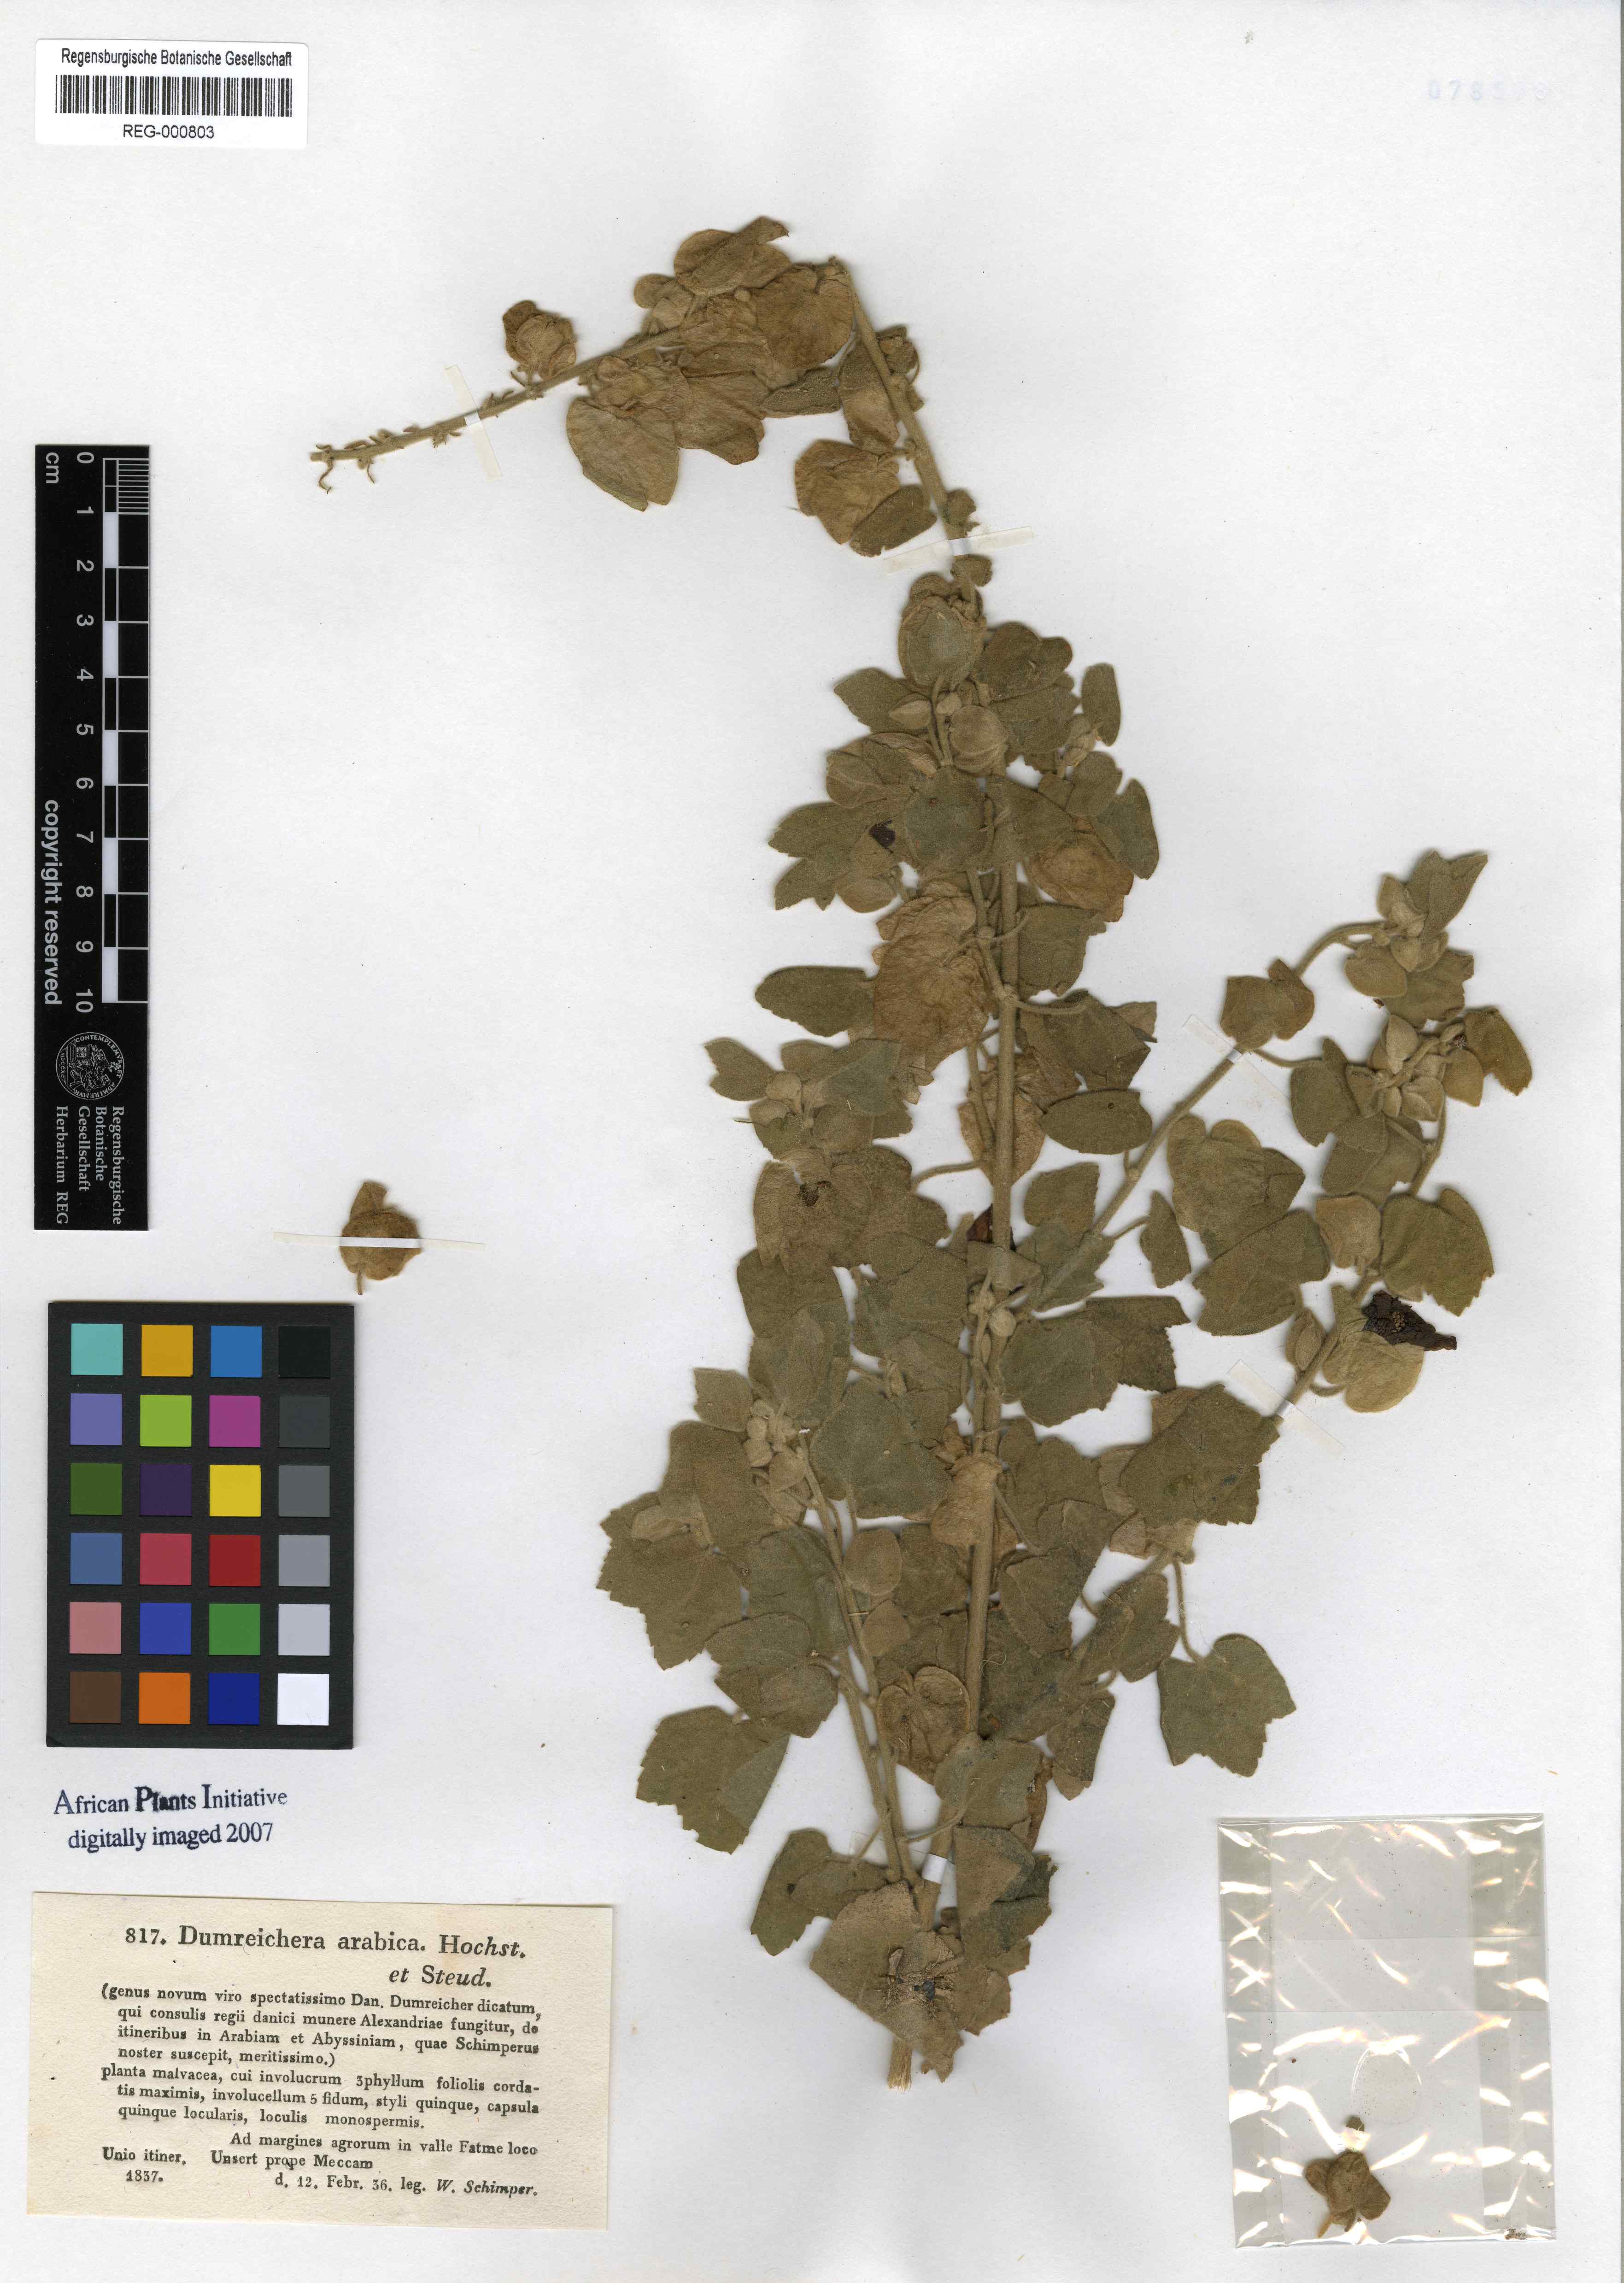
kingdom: Plantae
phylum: Tracheophyta
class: Magnoliopsida
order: Malvales
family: Malvaceae
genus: Senra
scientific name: Senra incana
